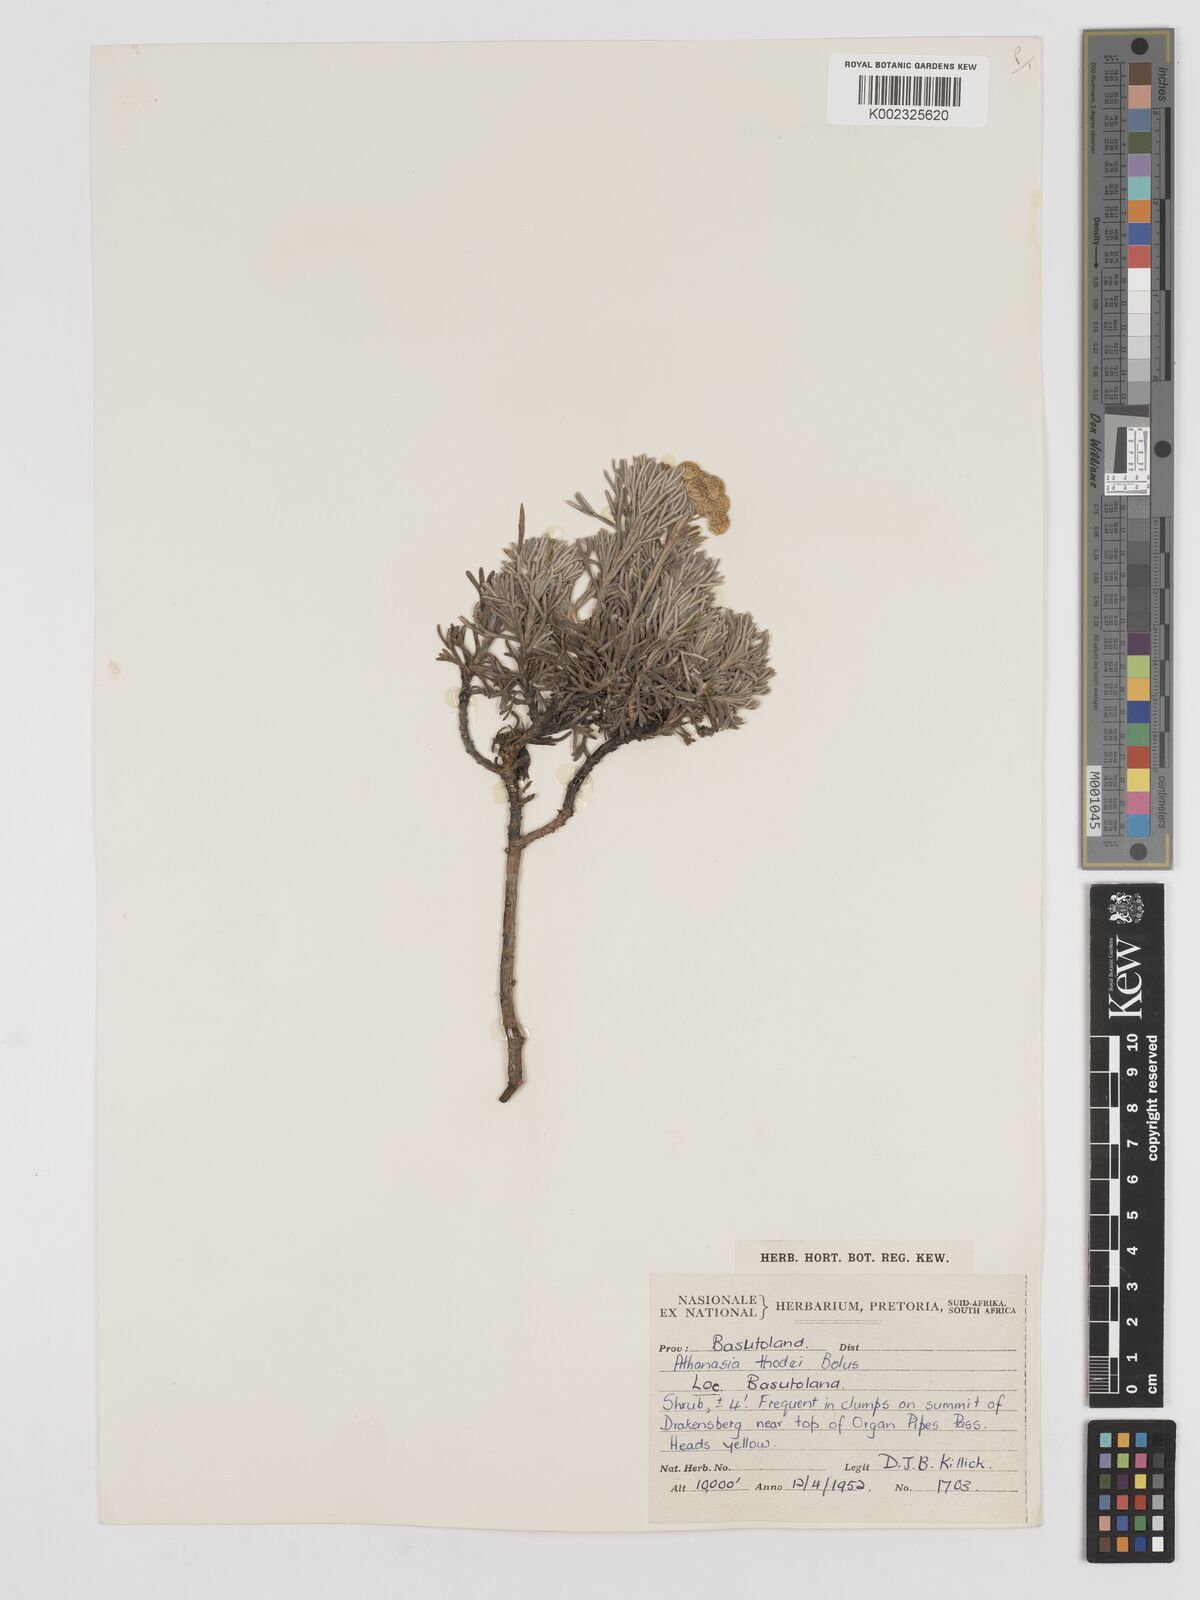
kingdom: Plantae
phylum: Tracheophyta
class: Magnoliopsida
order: Asterales
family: Asteraceae
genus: Inulanthera
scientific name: Inulanthera thodei
